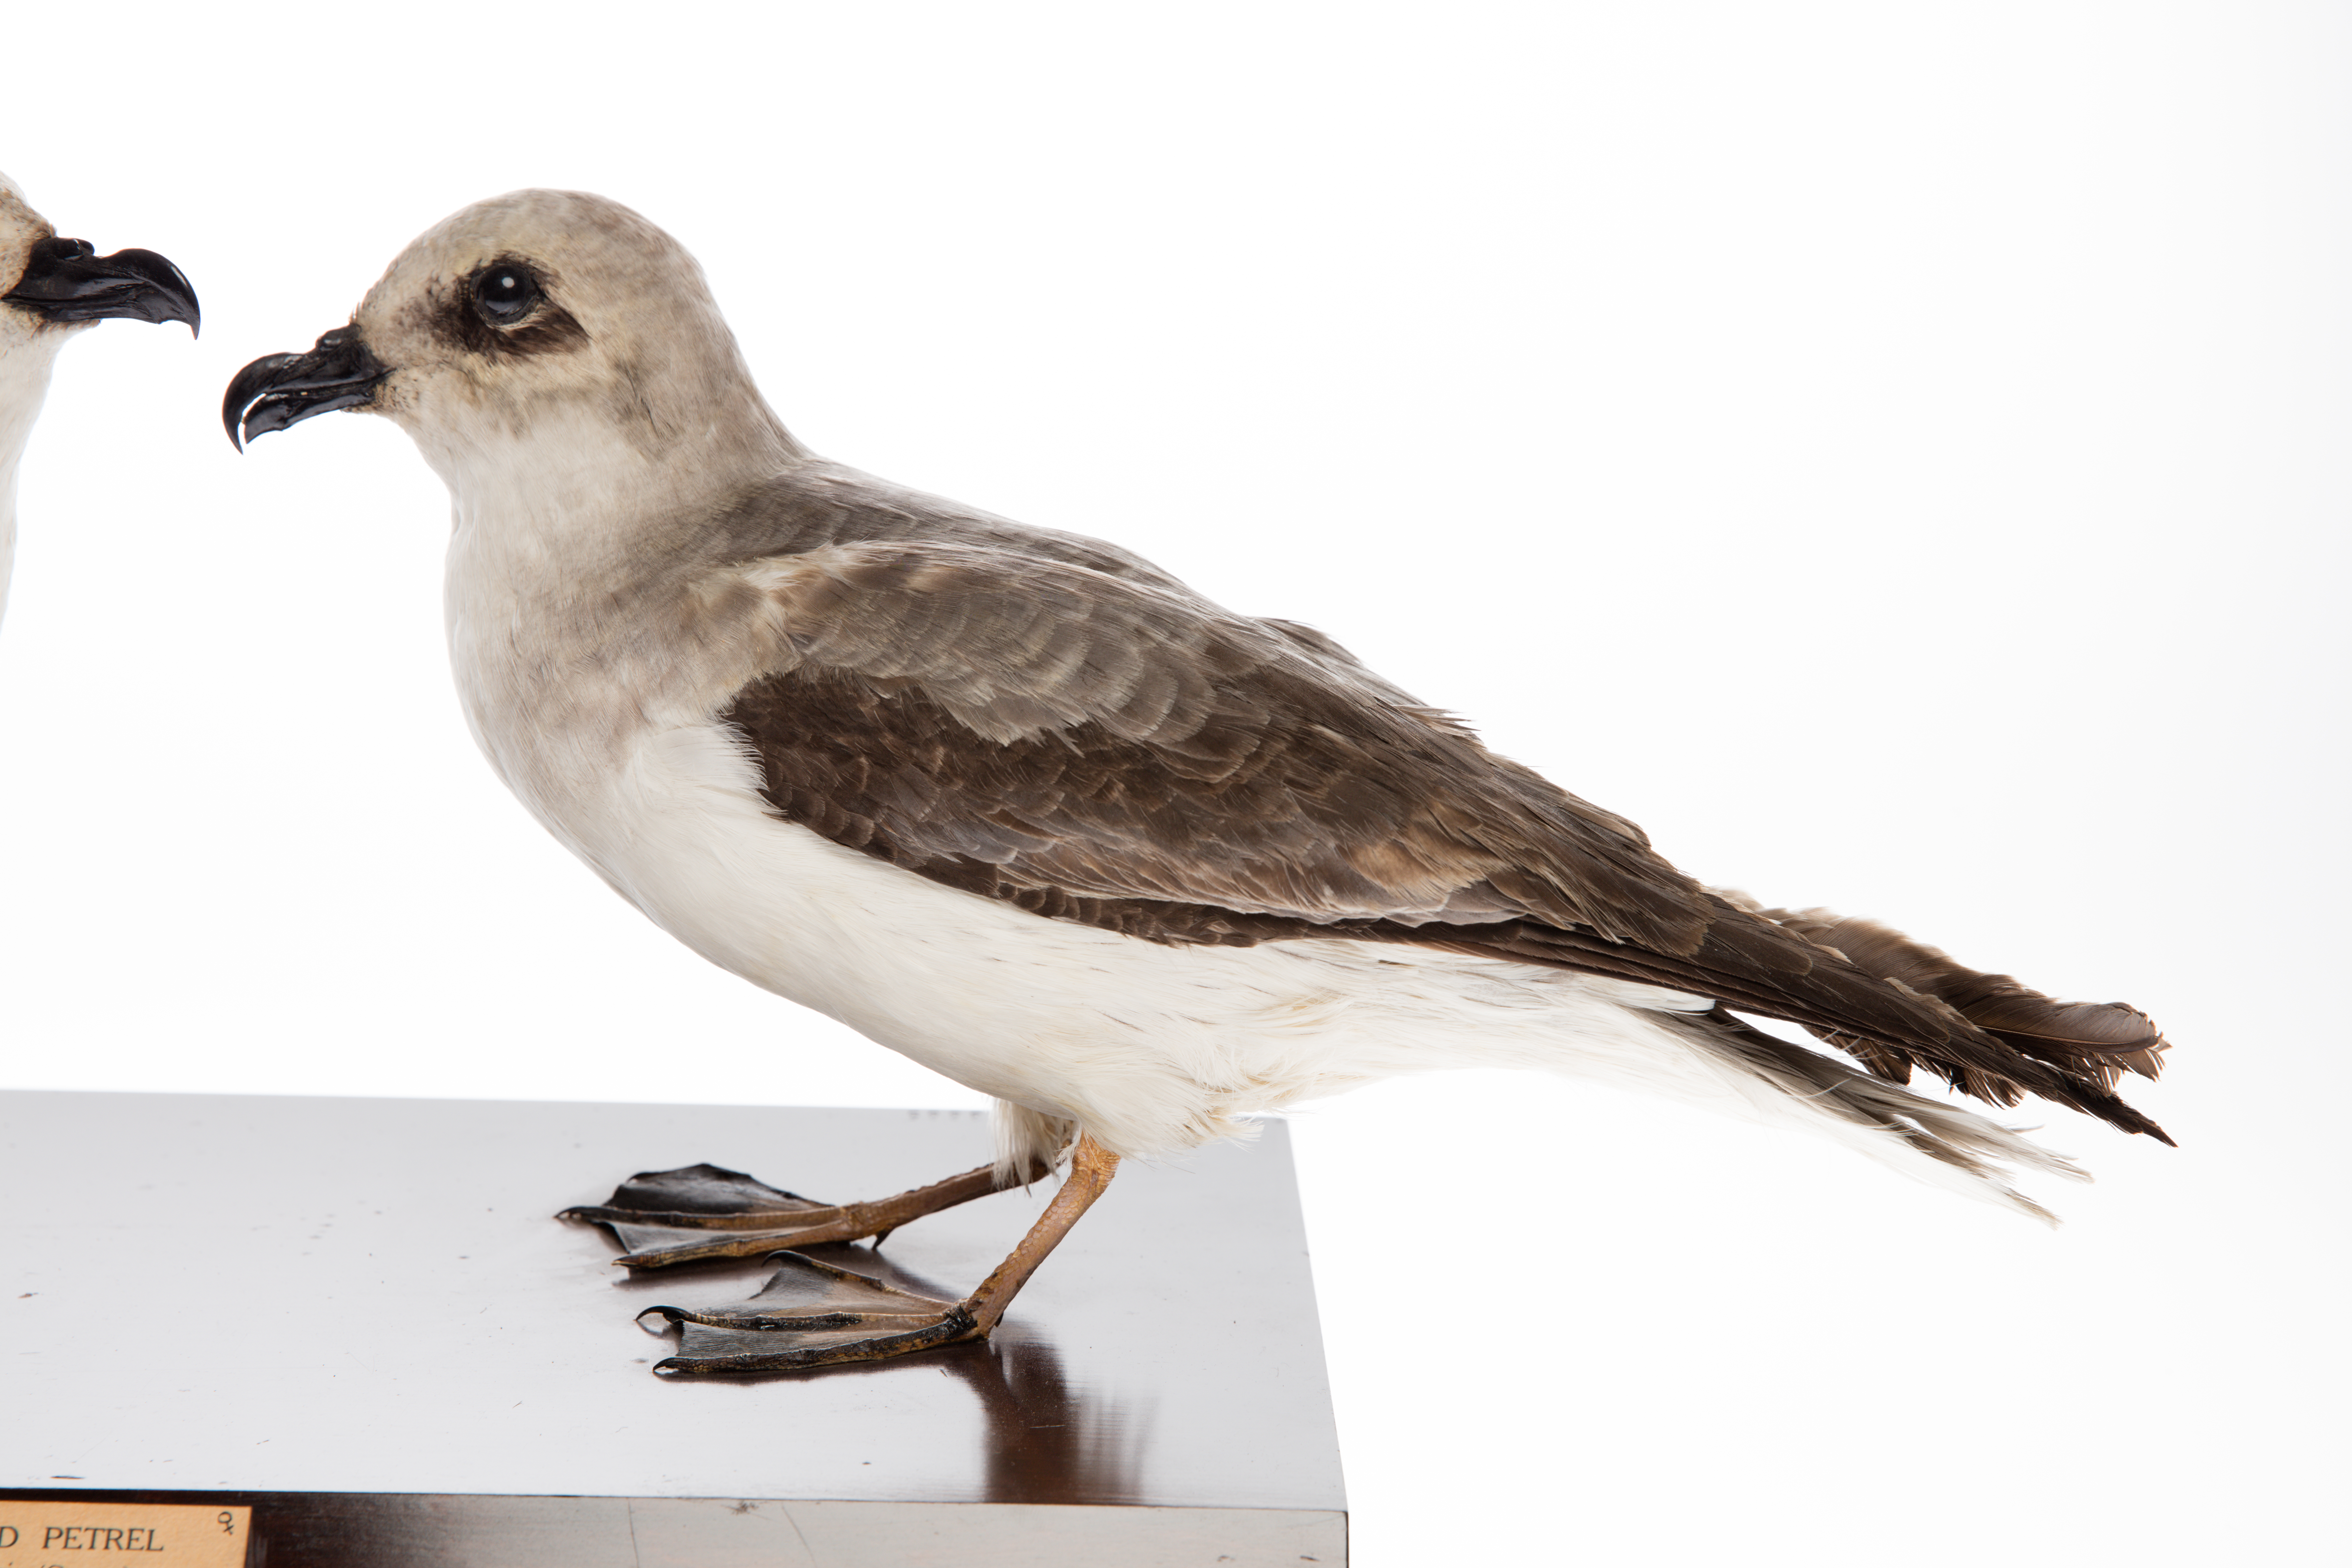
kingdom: Animalia
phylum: Chordata
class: Aves
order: Procellariiformes
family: Procellariidae
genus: Pterodroma
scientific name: Pterodroma lessonii
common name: White-headed petrel
